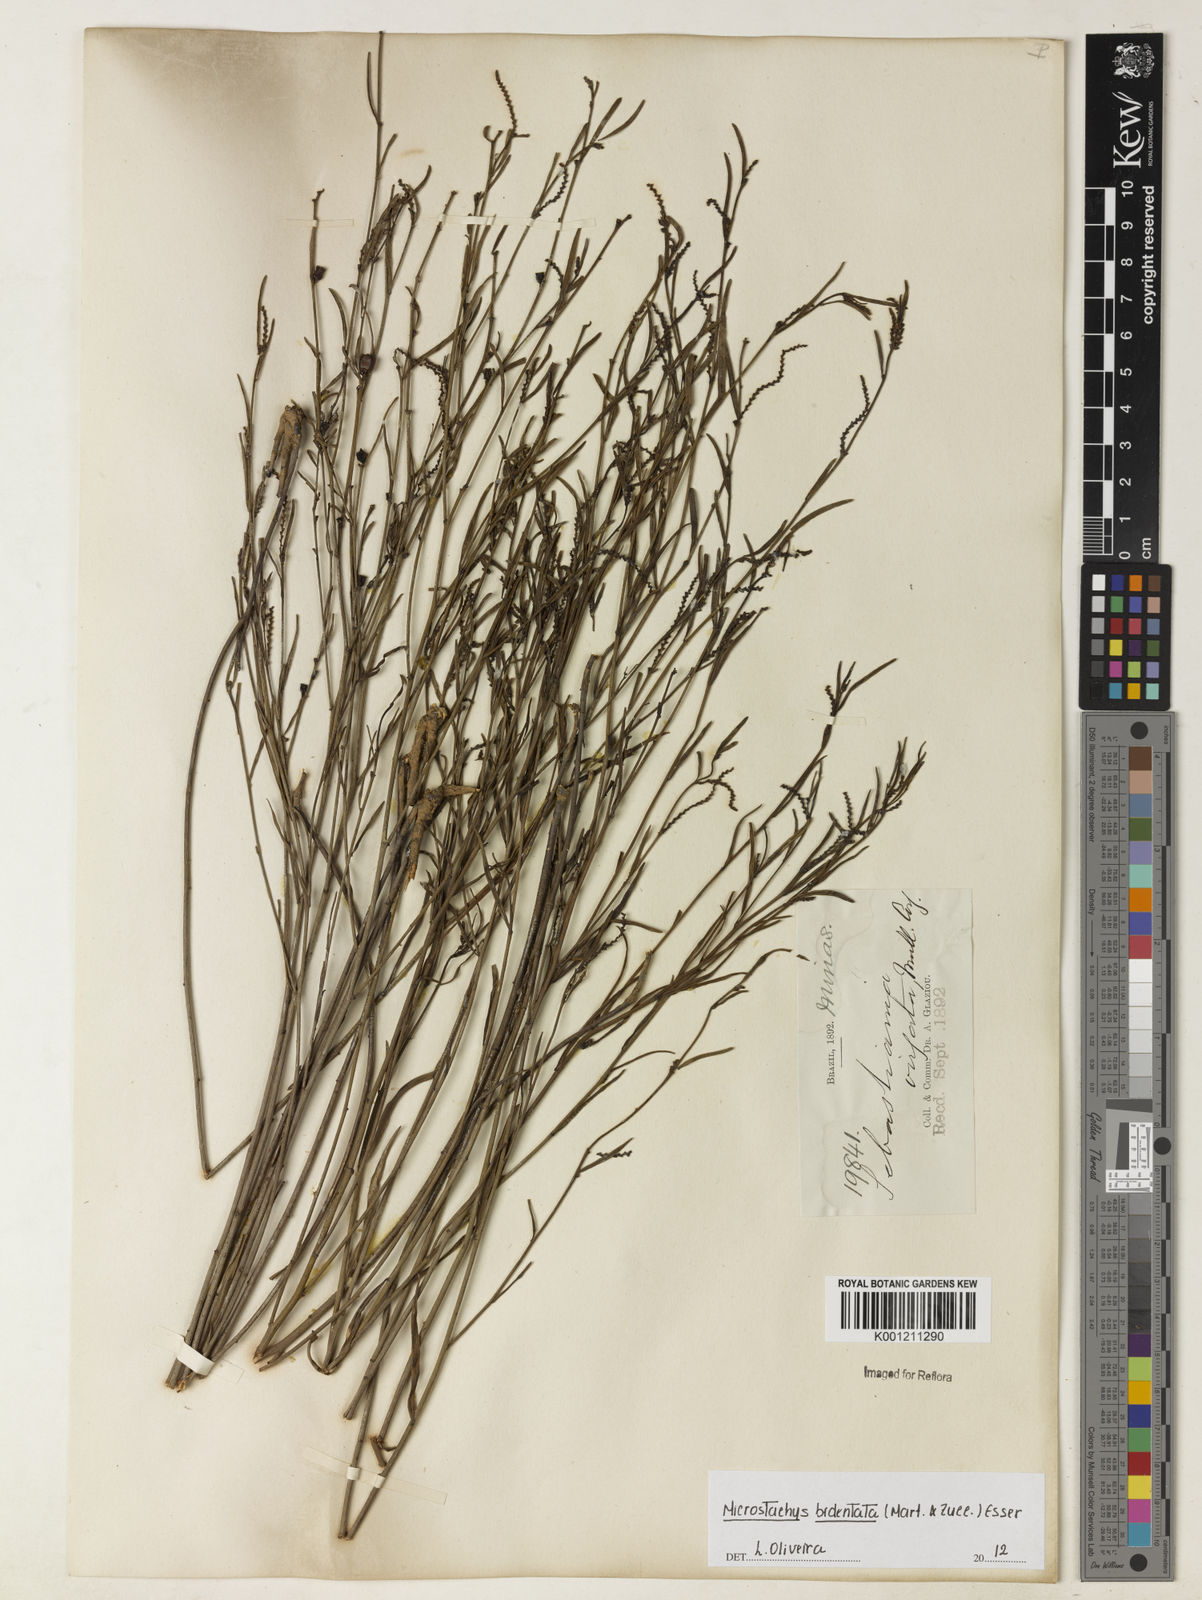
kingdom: Plantae
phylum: Tracheophyta
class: Magnoliopsida
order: Malpighiales
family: Euphorbiaceae
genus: Microstachys
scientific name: Microstachys bidentata
